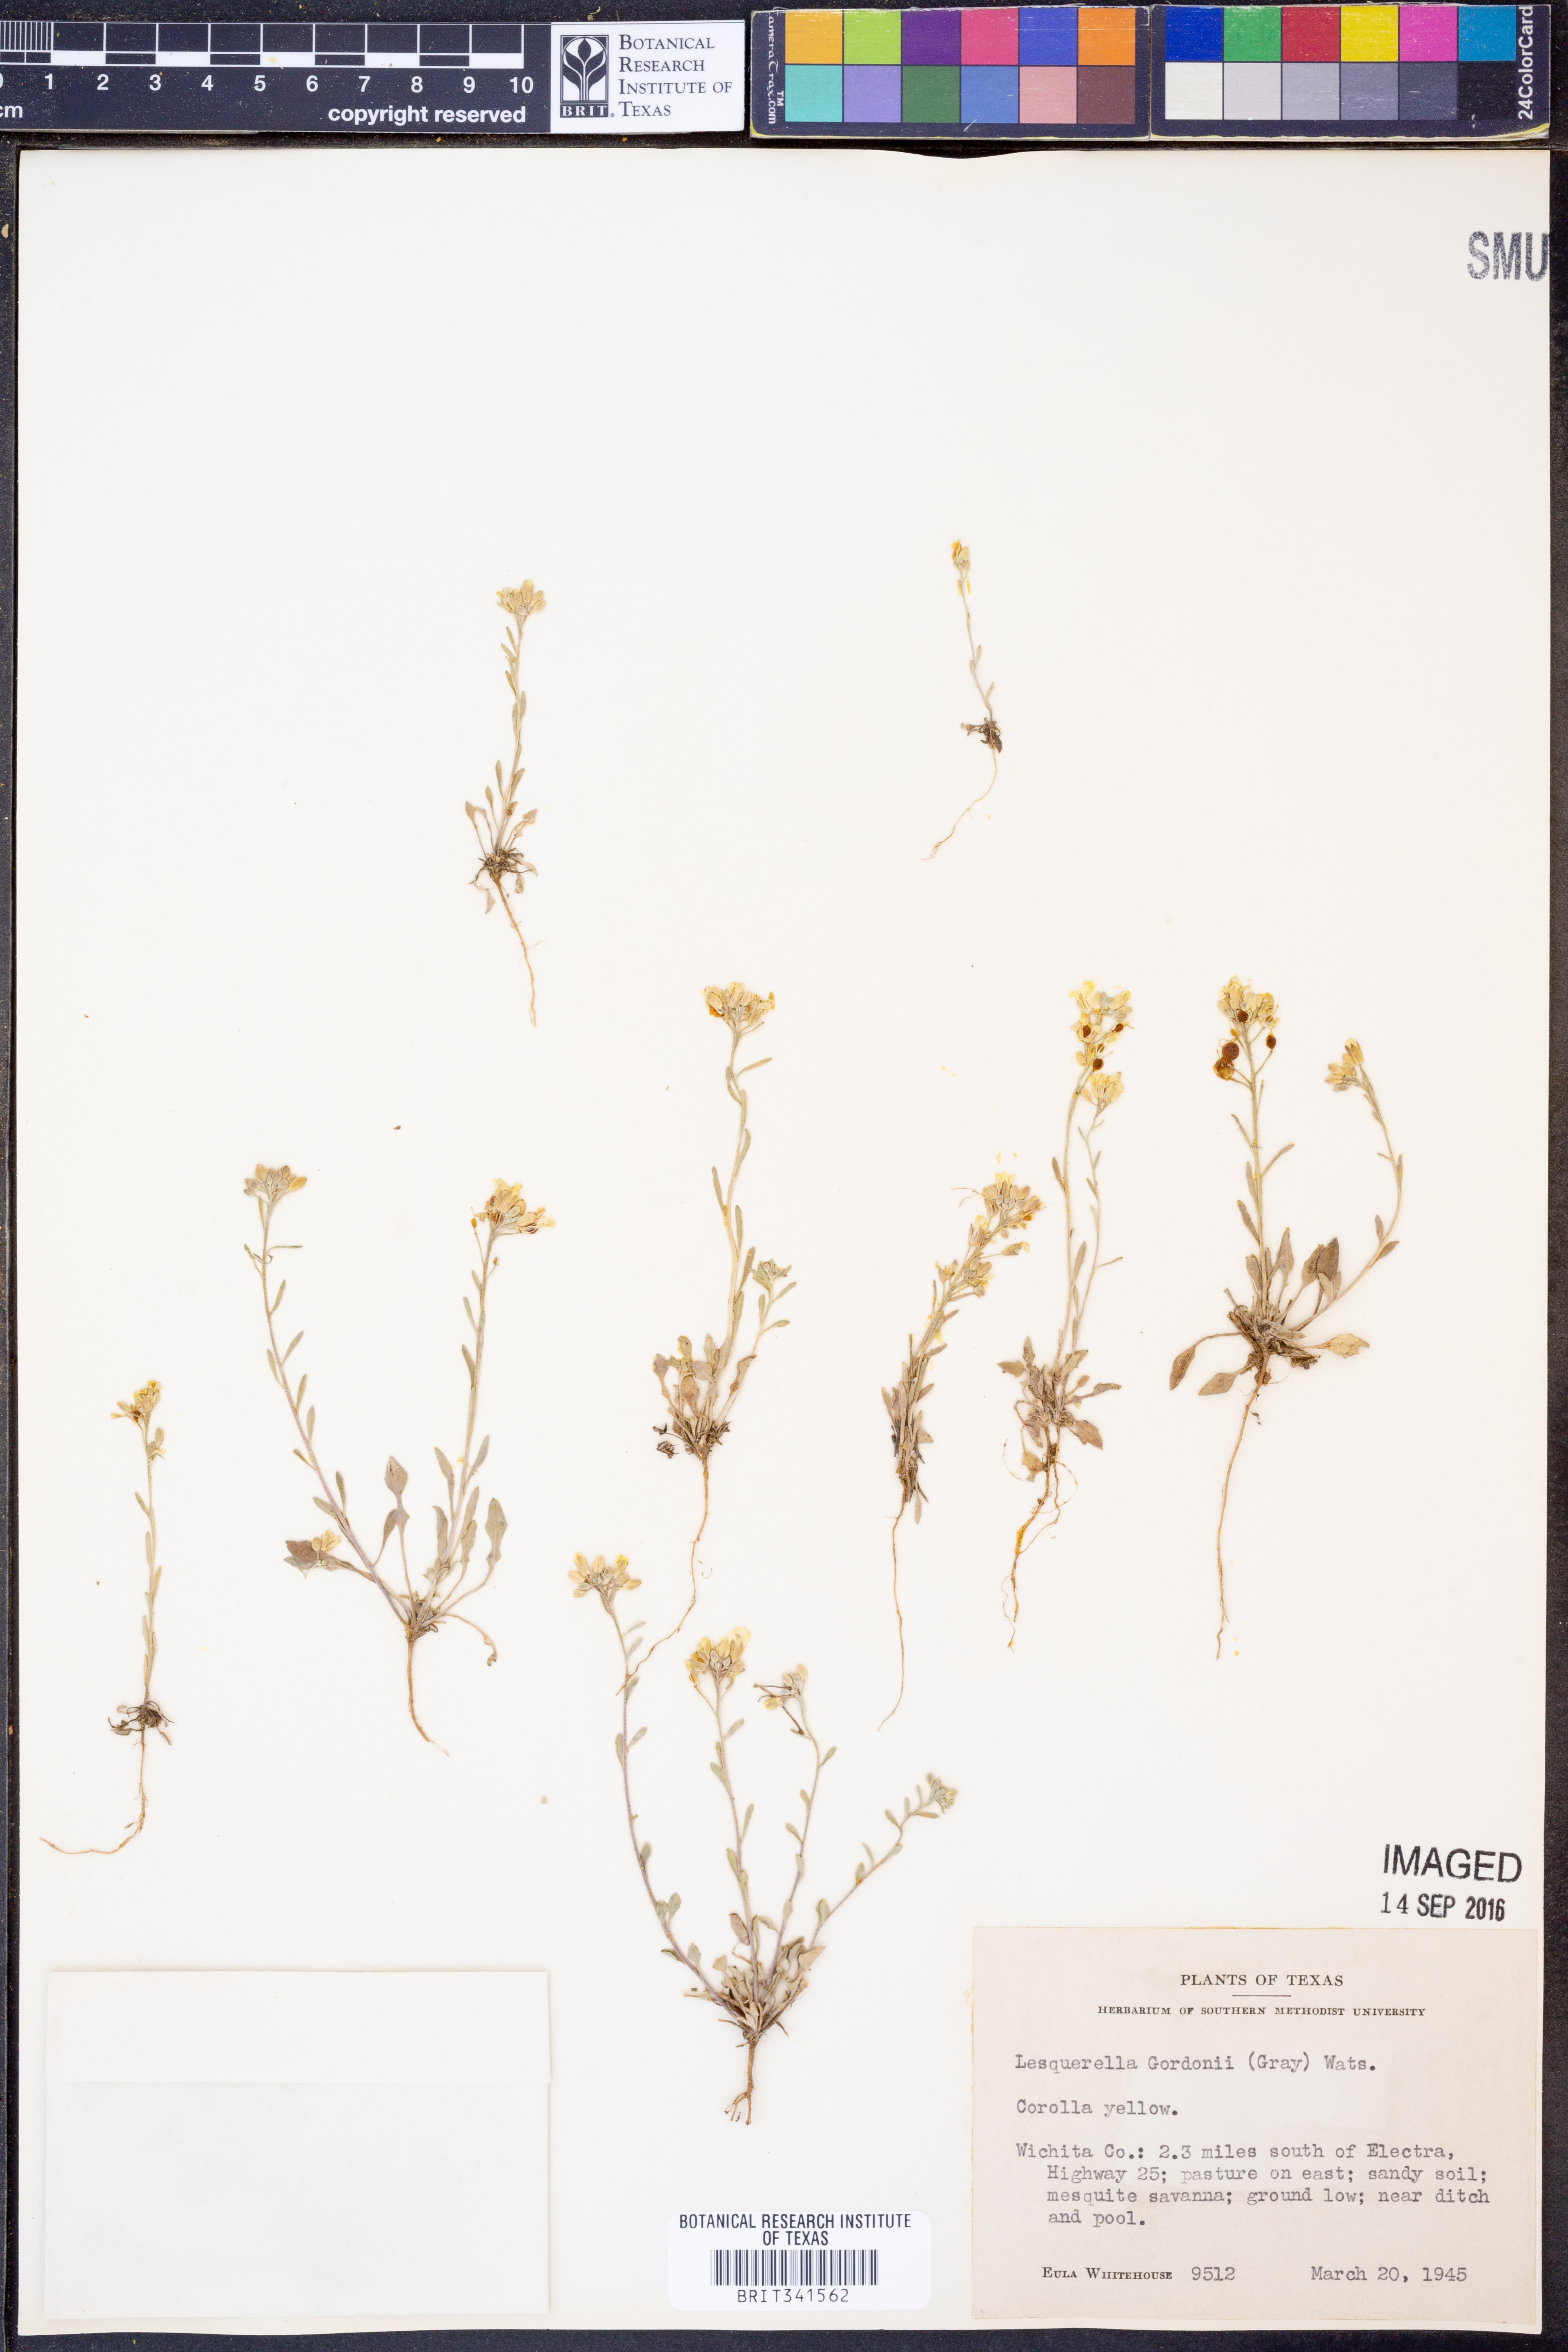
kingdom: Plantae
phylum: Tracheophyta
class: Magnoliopsida
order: Brassicales
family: Brassicaceae
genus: Physaria
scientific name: Physaria gordonii
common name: Gordon's bladderpod
